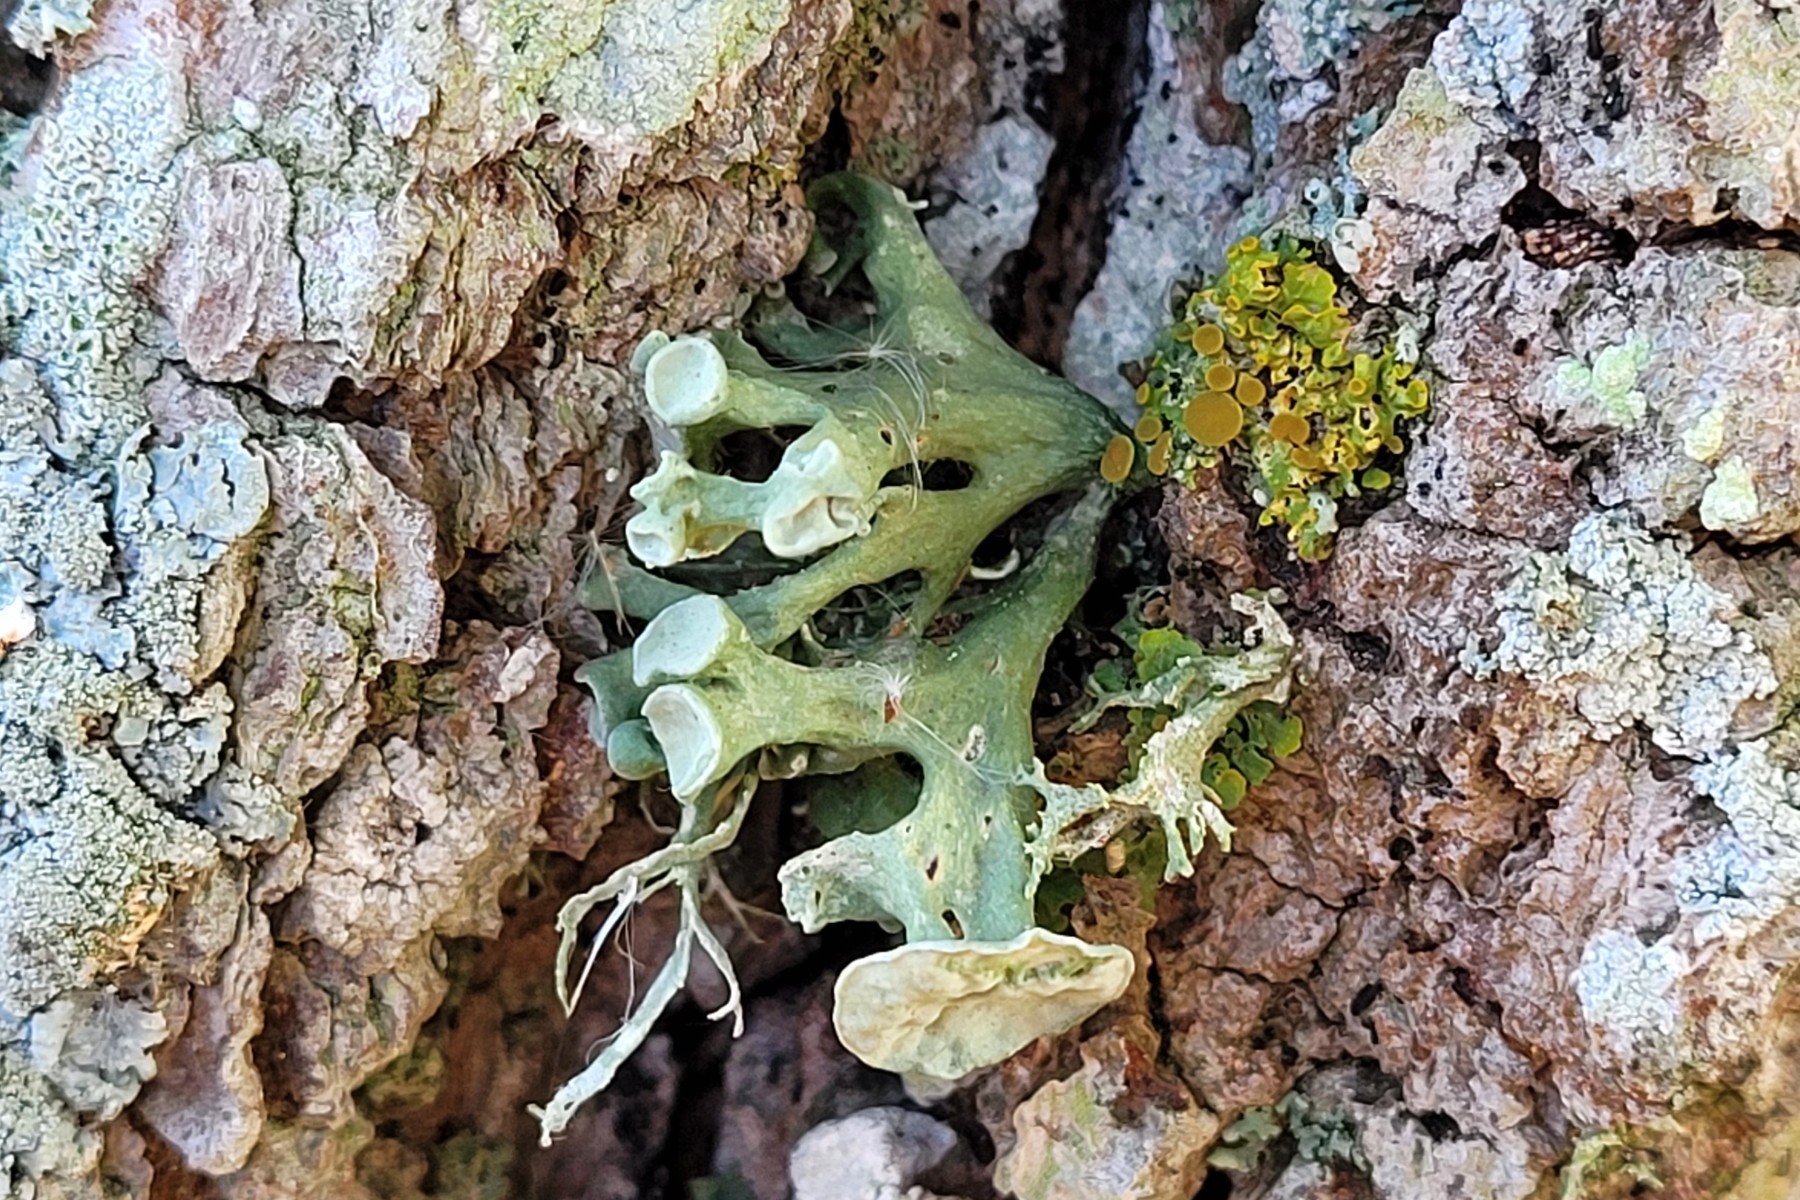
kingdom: Fungi
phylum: Ascomycota
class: Lecanoromycetes
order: Lecanorales
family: Ramalinaceae
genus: Ramalina
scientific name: Ramalina fastigiata
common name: tue-grenlav
